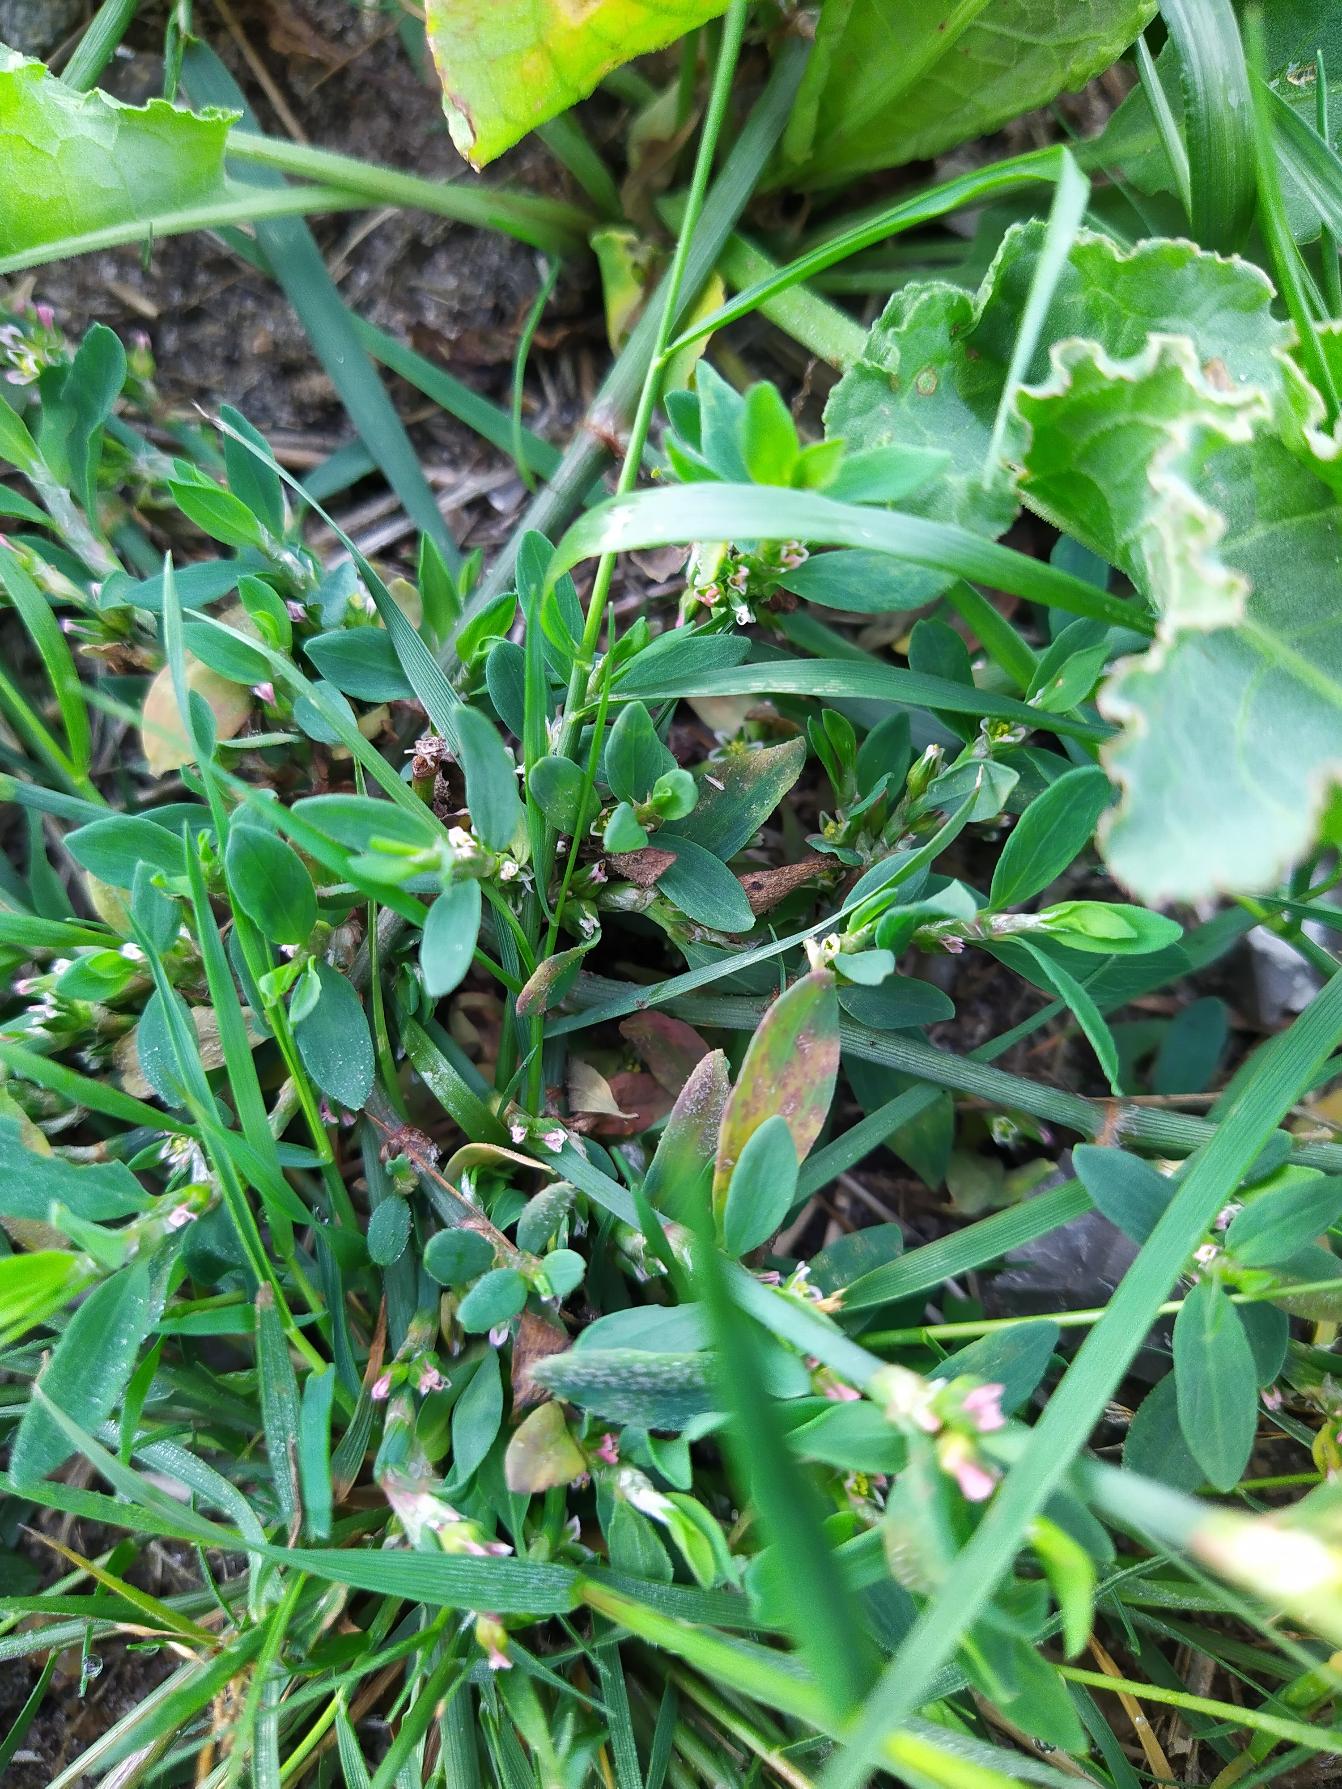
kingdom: Plantae
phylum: Tracheophyta
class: Magnoliopsida
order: Caryophyllales
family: Polygonaceae
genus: Polygonum
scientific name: Polygonum aviculare
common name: Vej-pileurt
